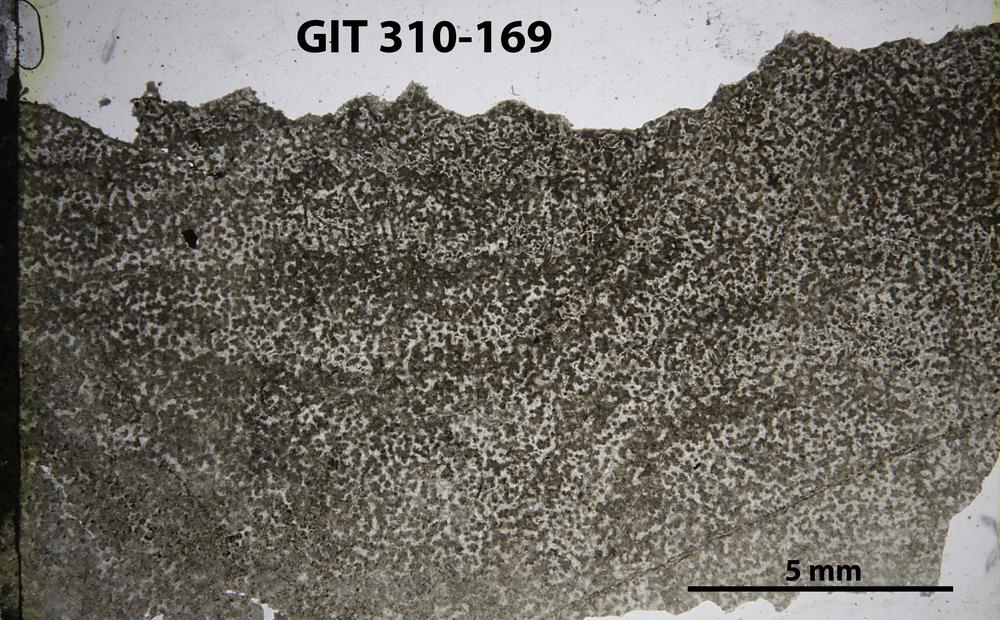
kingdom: Animalia
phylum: Porifera
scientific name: Porifera
